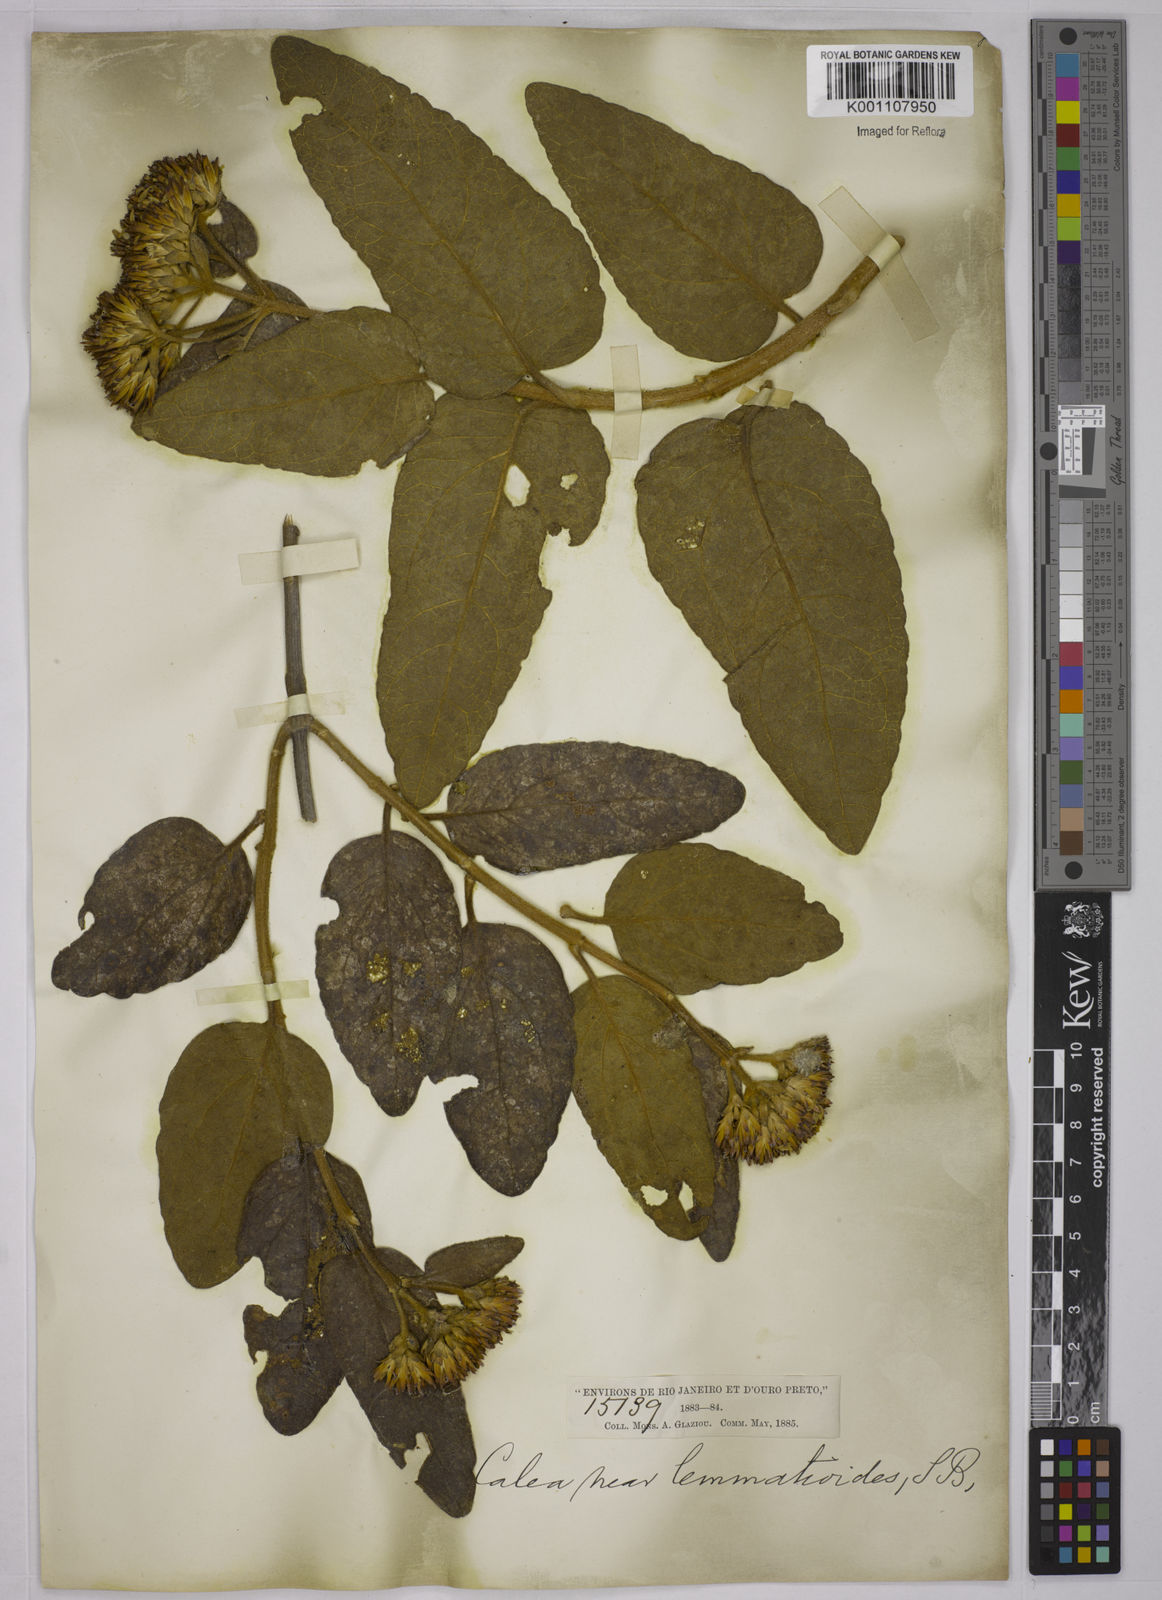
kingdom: Plantae
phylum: Tracheophyta
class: Magnoliopsida
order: Asterales
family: Asteraceae
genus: Calea
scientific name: Calea lemmatioides
